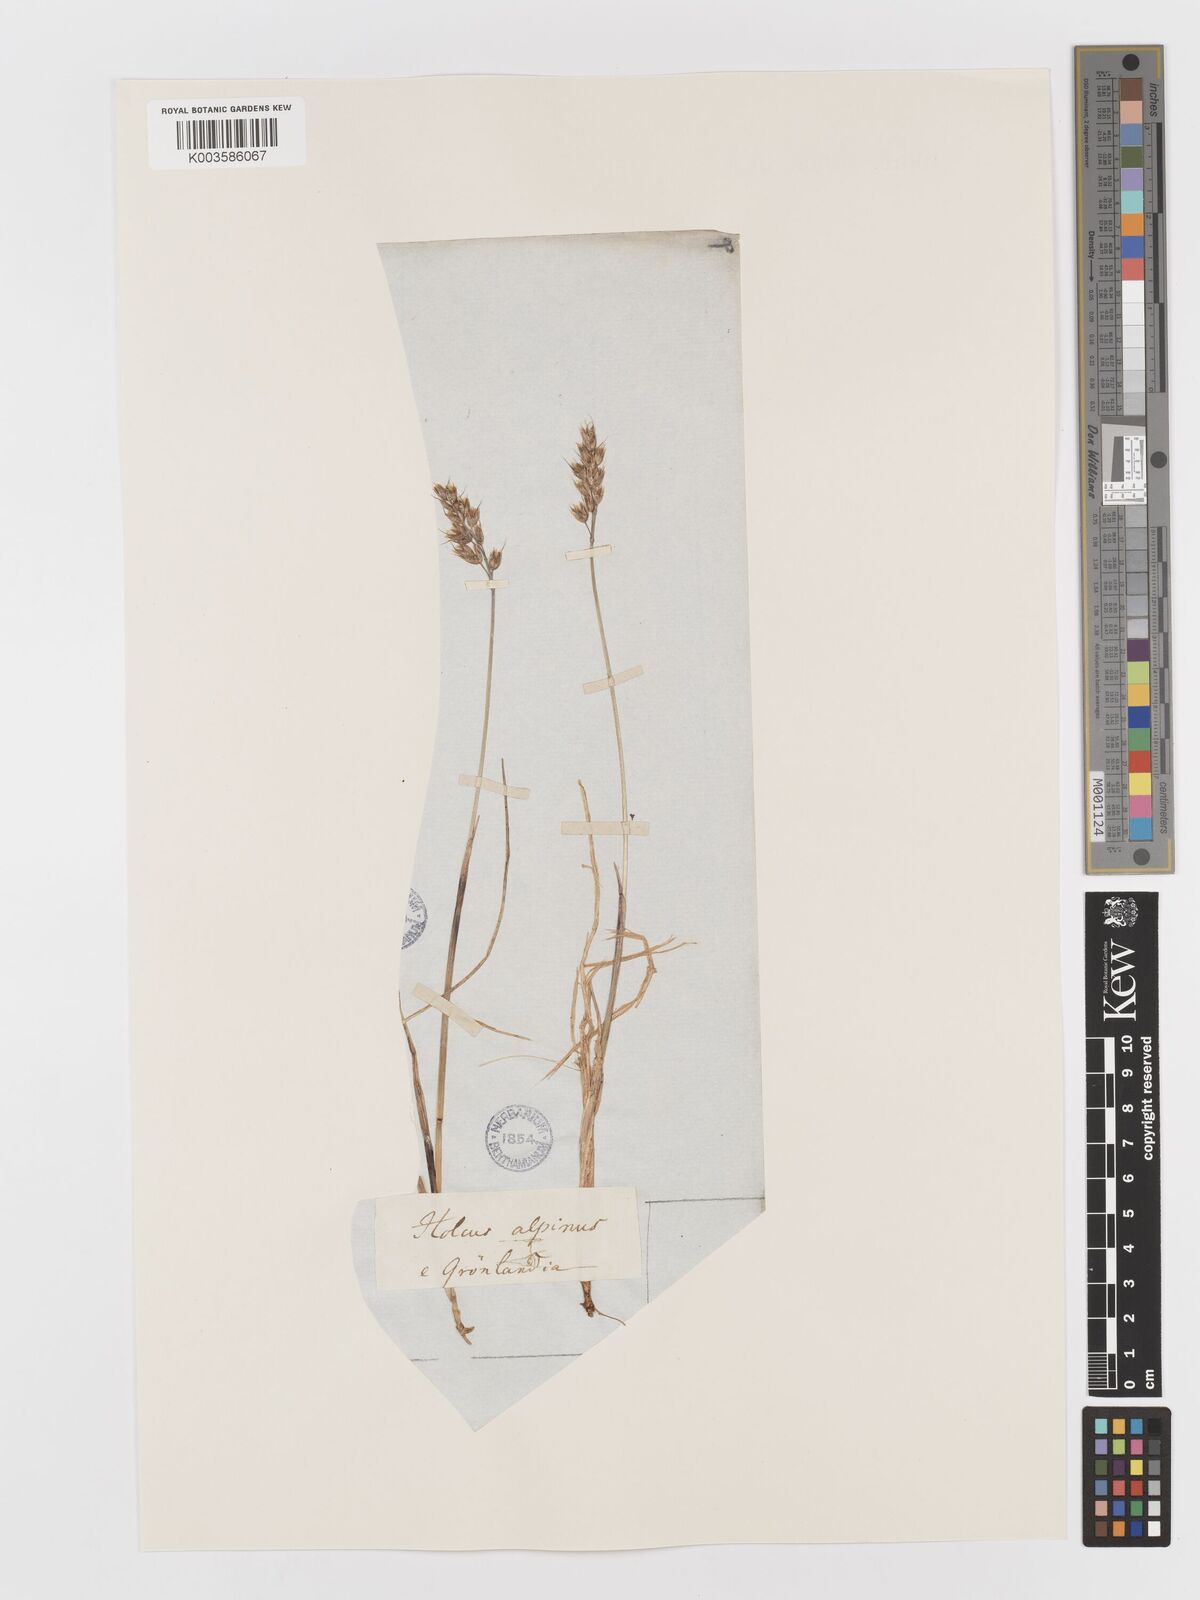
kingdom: Plantae
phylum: Tracheophyta
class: Liliopsida
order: Poales
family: Poaceae
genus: Anthoxanthum
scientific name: Anthoxanthum monticola
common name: Alpine sweetgrass
